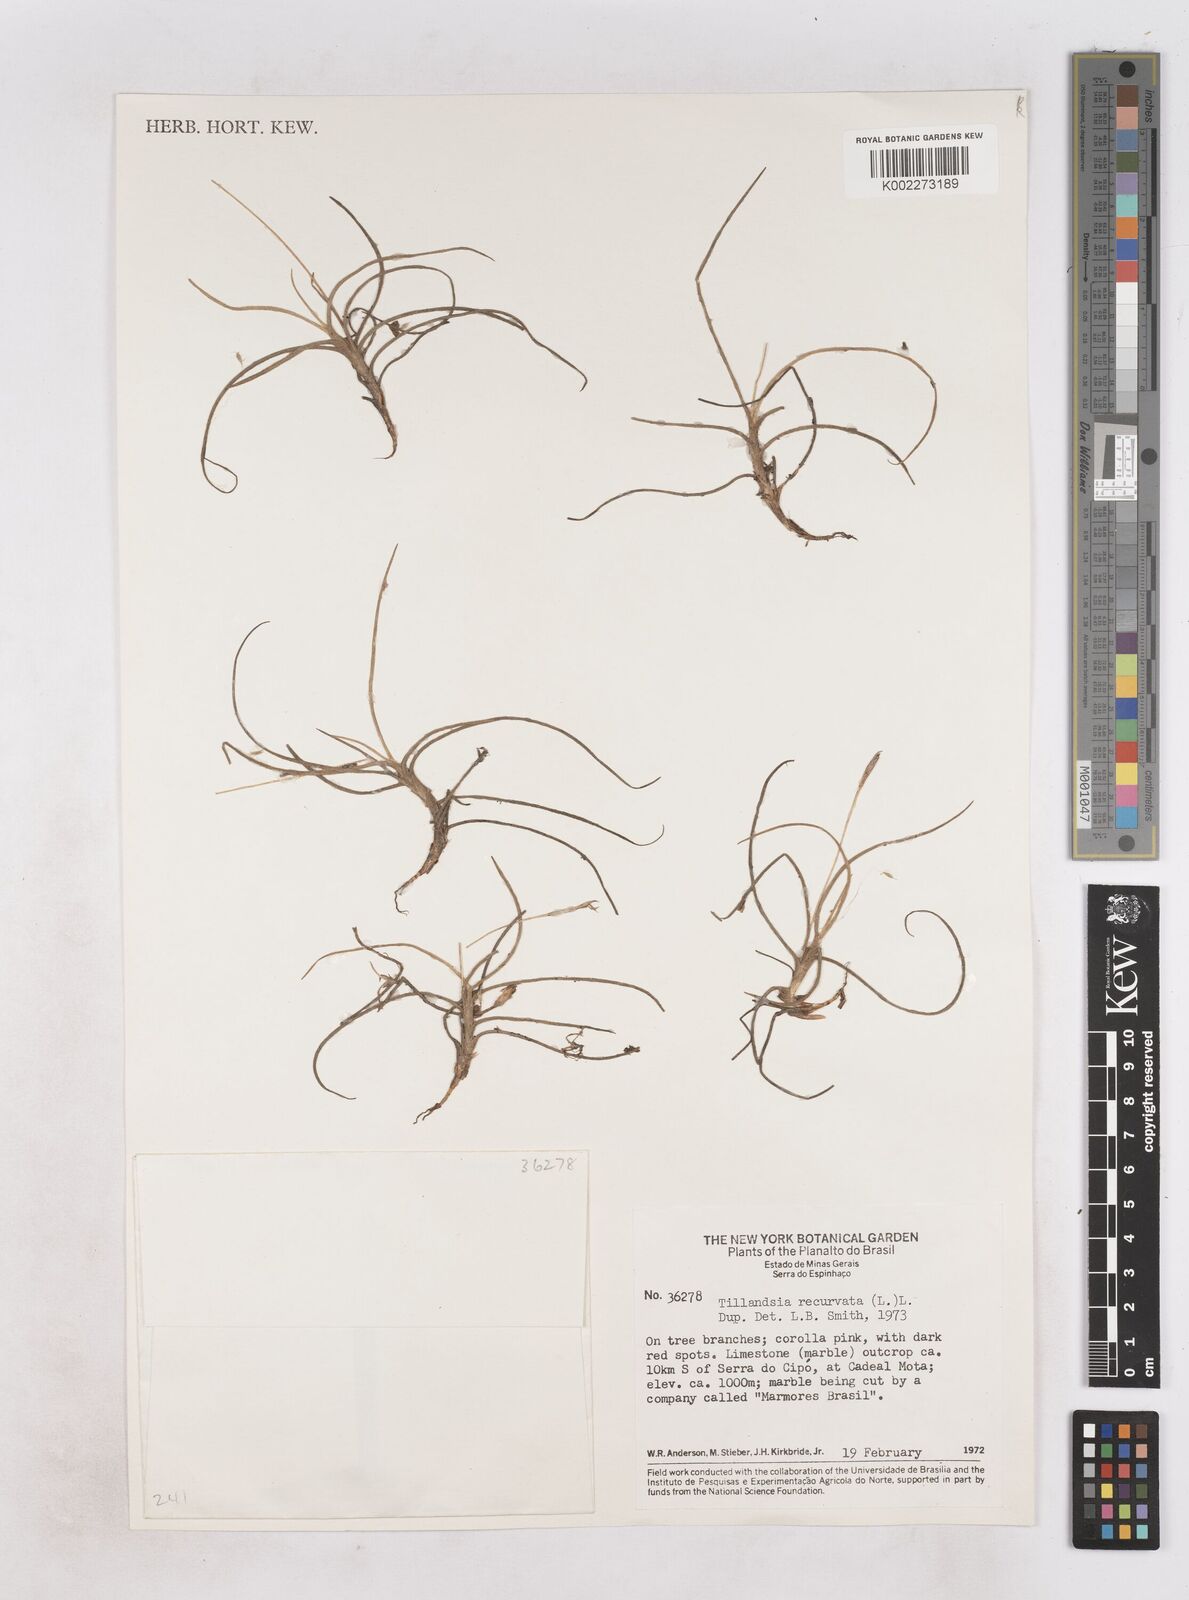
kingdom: Plantae
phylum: Tracheophyta
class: Liliopsida
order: Poales
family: Bromeliaceae
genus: Tillandsia
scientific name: Tillandsia recurvata
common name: Small ballmoss
